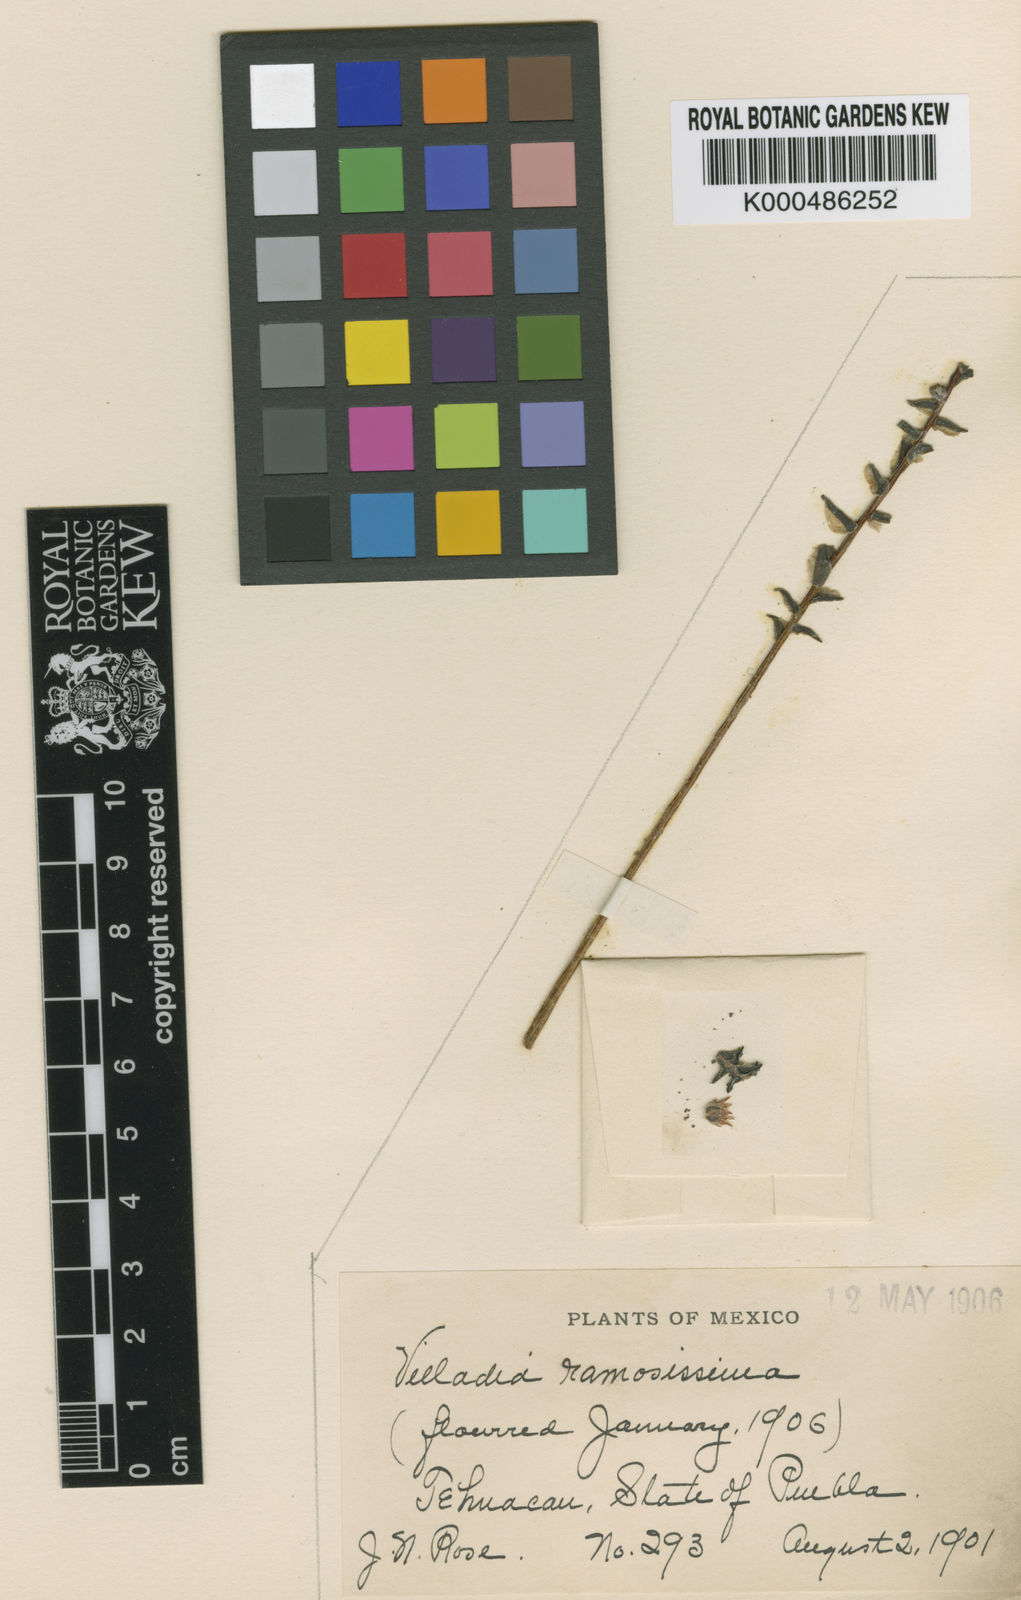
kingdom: Plantae
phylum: Tracheophyta
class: Magnoliopsida
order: Saxifragales
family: Crassulaceae
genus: Villadia
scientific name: Villadia albiflora
